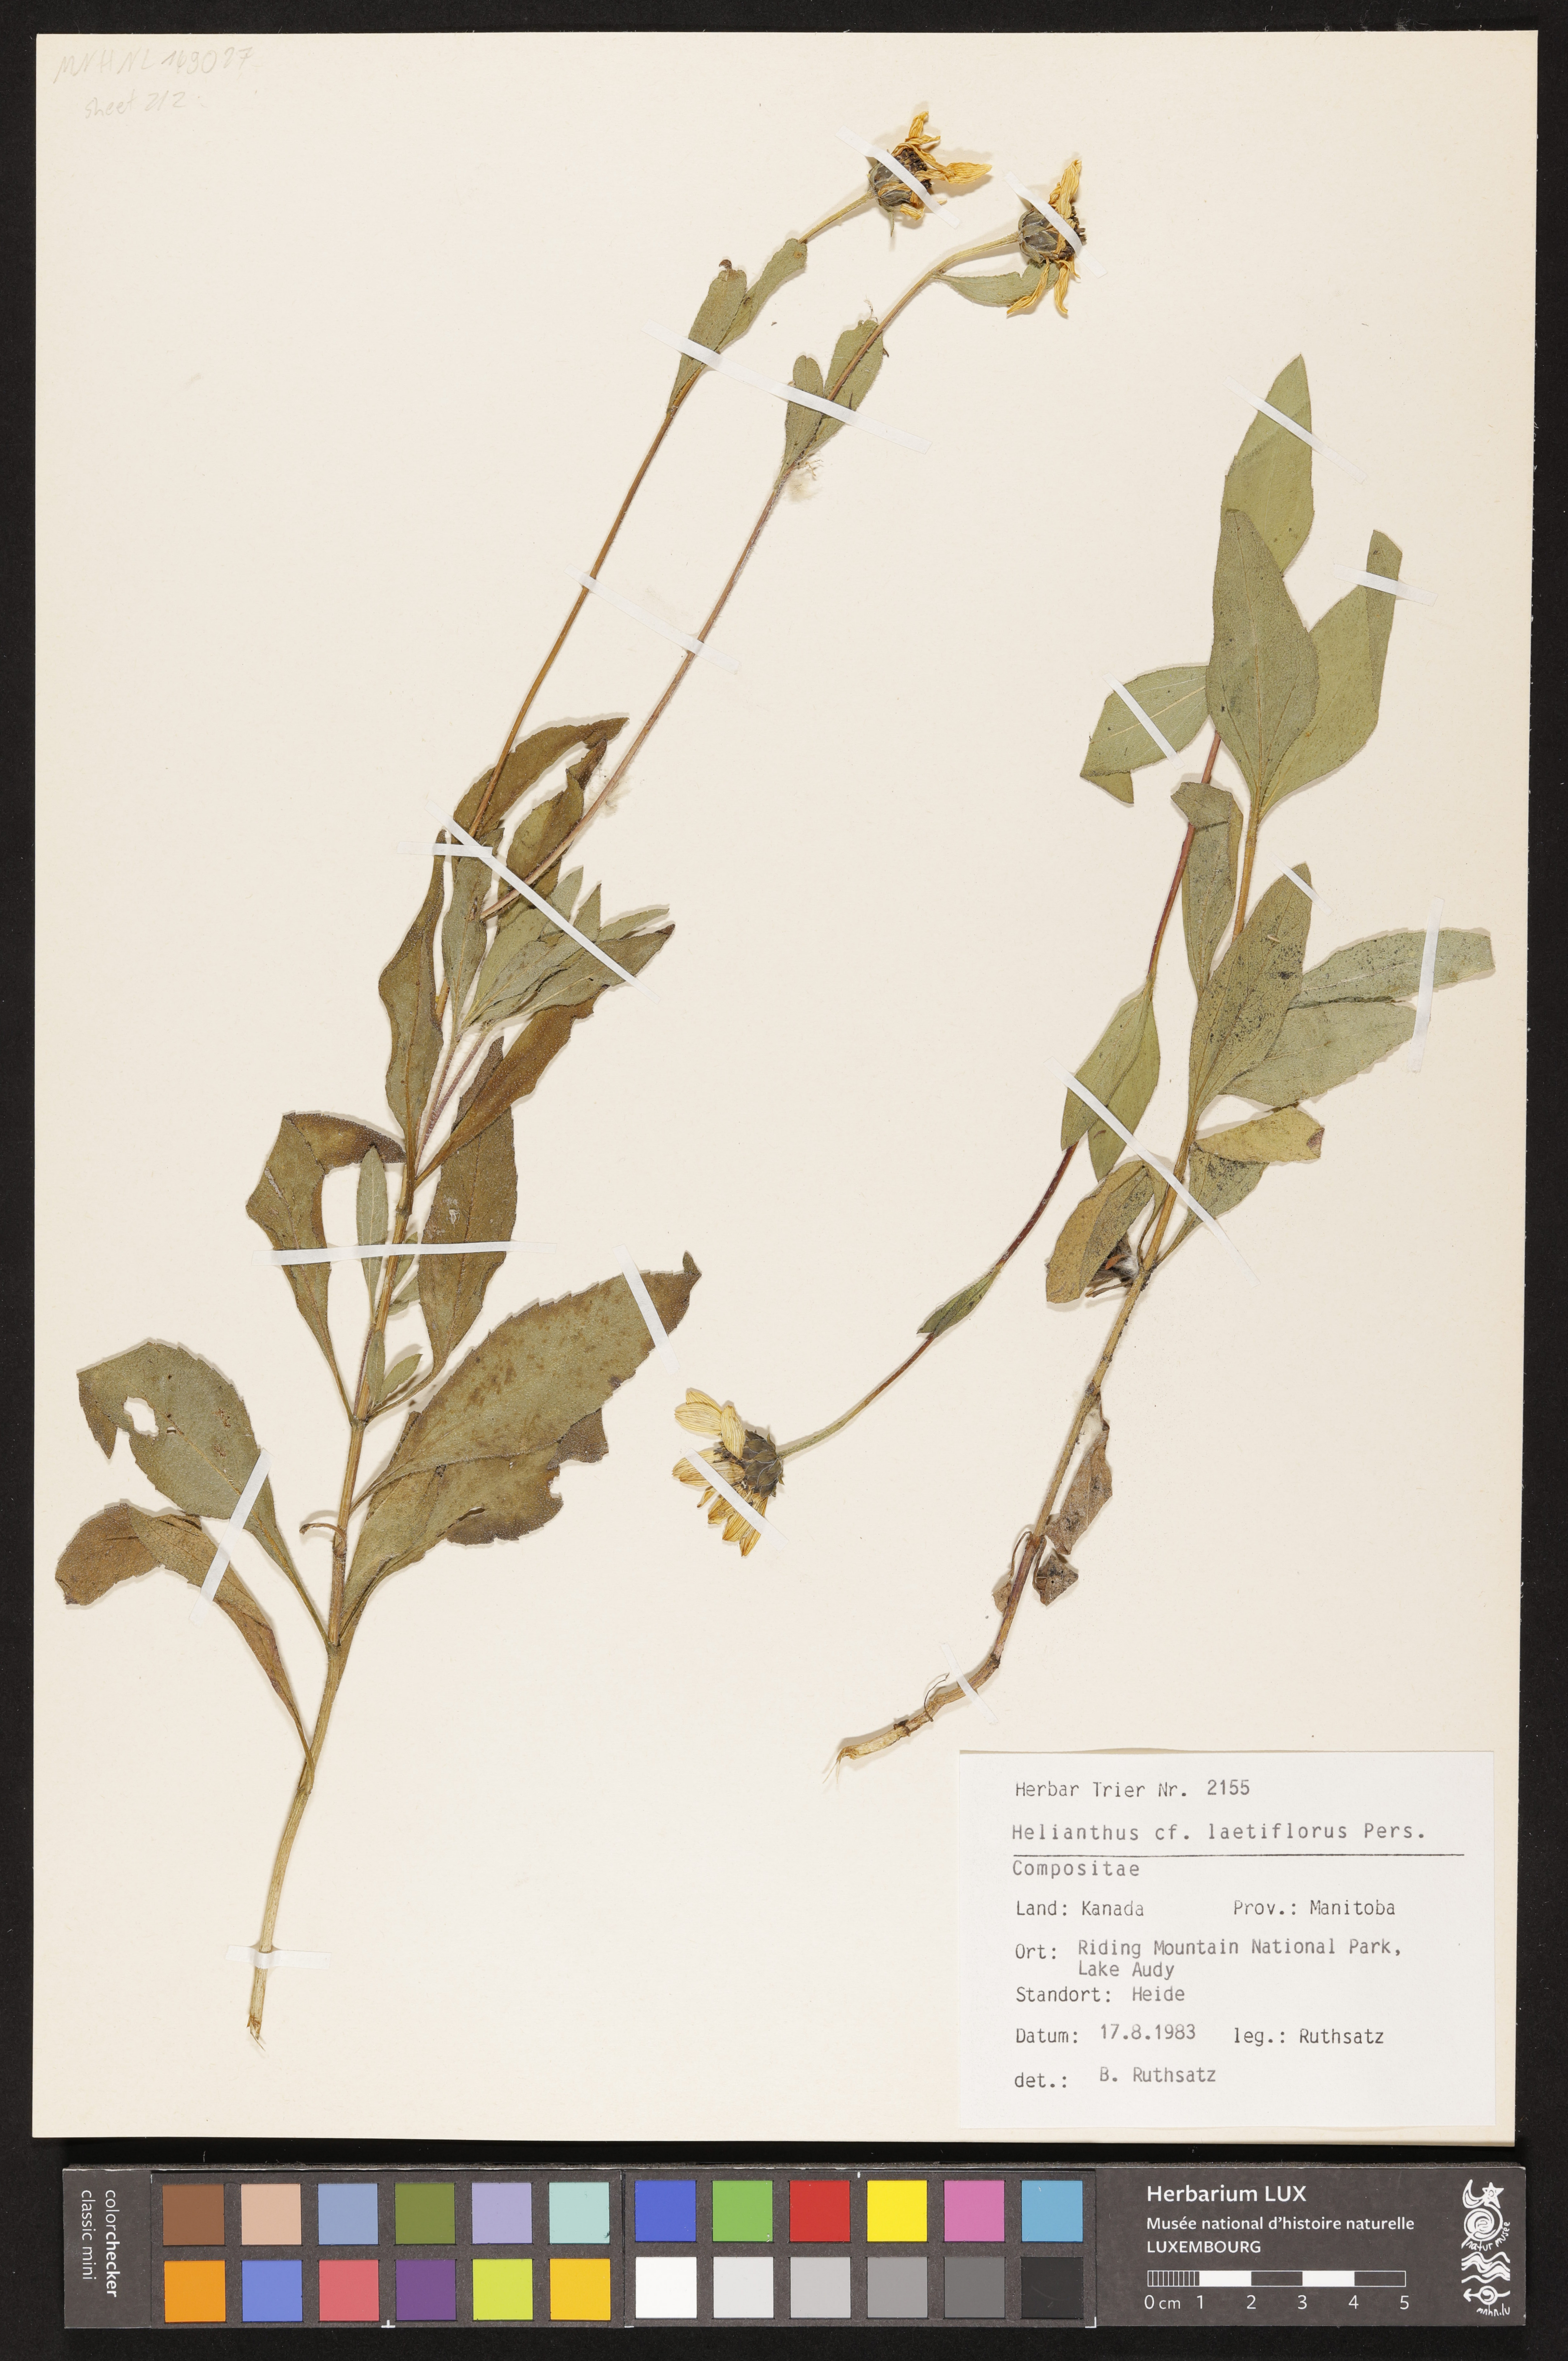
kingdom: Plantae
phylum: Tracheophyta
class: Magnoliopsida
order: Asterales
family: Asteraceae
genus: Helianthus
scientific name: Helianthus laetiflorus
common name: Perennial sunflower
